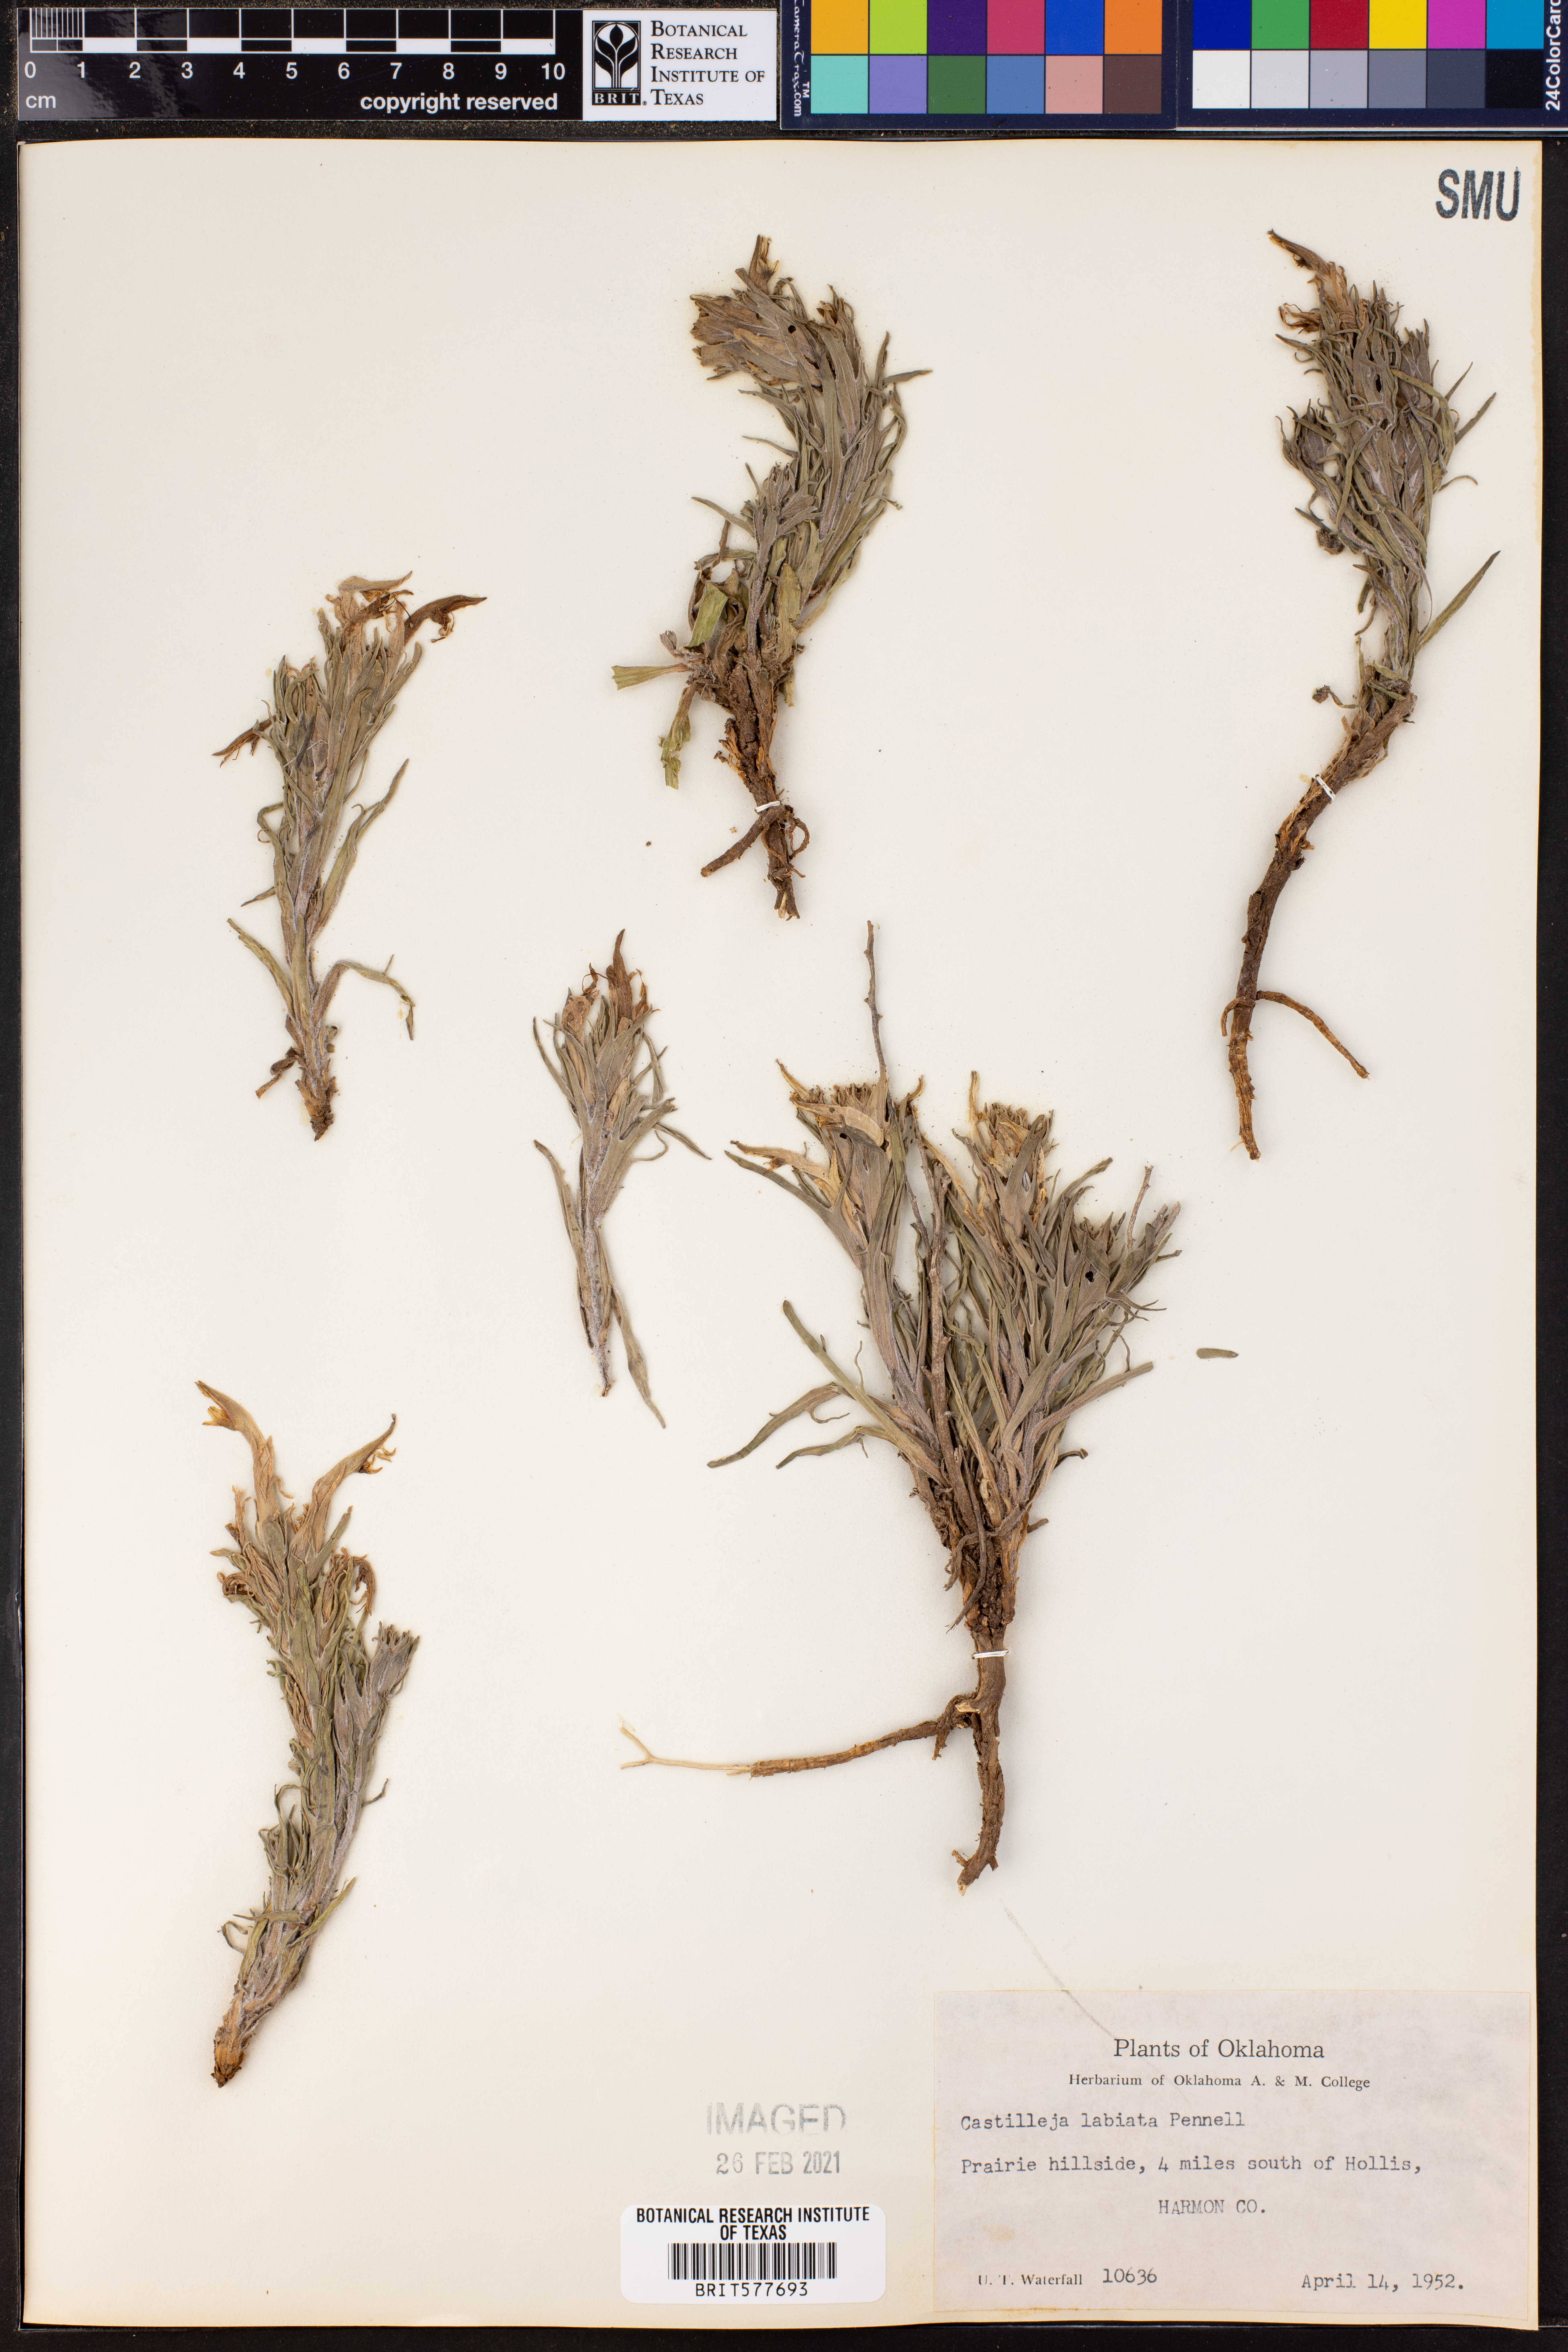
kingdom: Plantae
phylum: Tracheophyta
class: Magnoliopsida
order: Lamiales
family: Orobanchaceae
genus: Castilleja
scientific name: Castilleja citrina
